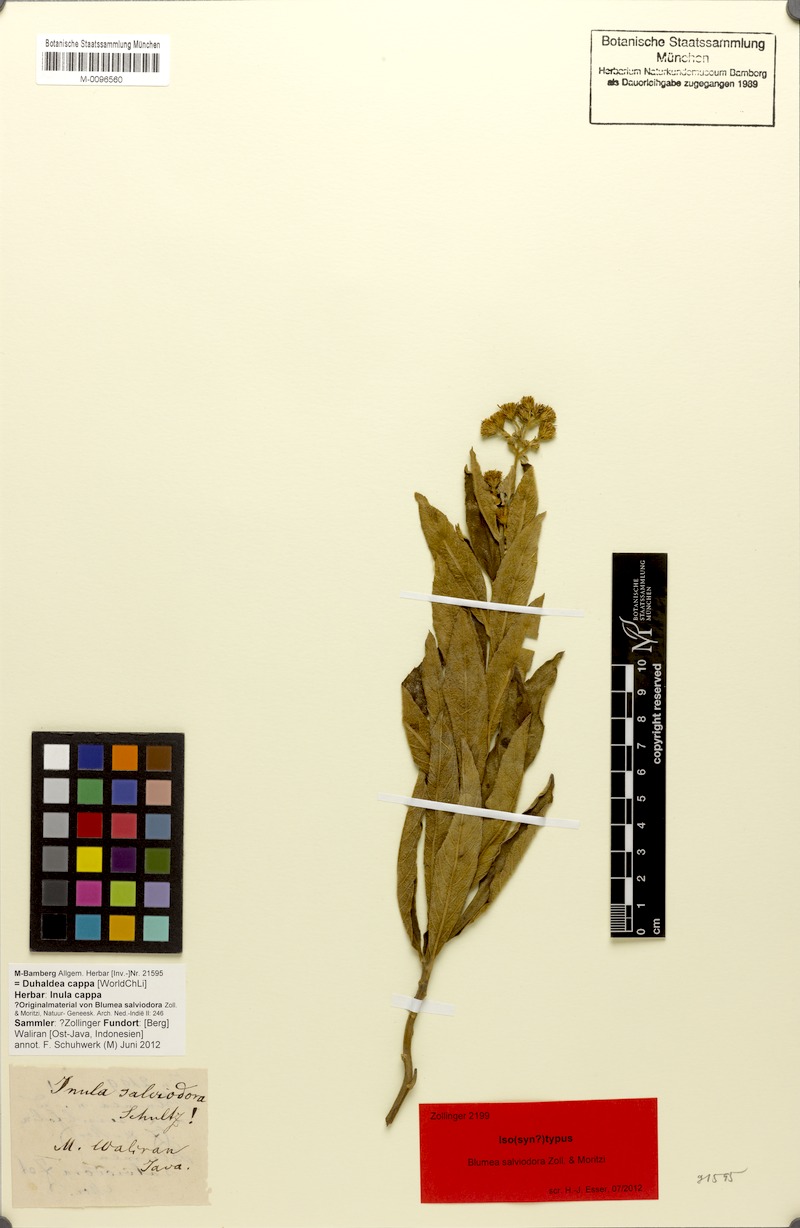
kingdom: Plantae
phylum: Tracheophyta
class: Magnoliopsida
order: Asterales
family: Asteraceae
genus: Duhaldea
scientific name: Duhaldea cappa
